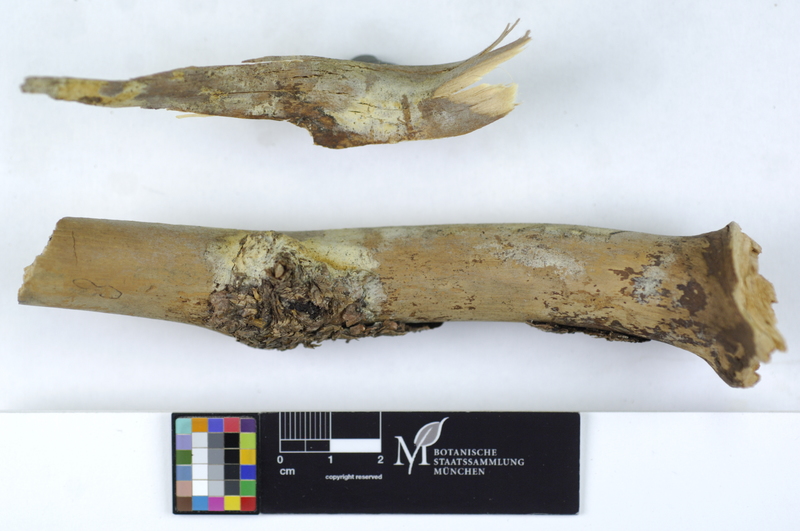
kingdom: Fungi
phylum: Basidiomycota
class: Agaricomycetes
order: Boletales
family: Coniophoraceae
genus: Coniophora
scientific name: Coniophora arida
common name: Dry duster
